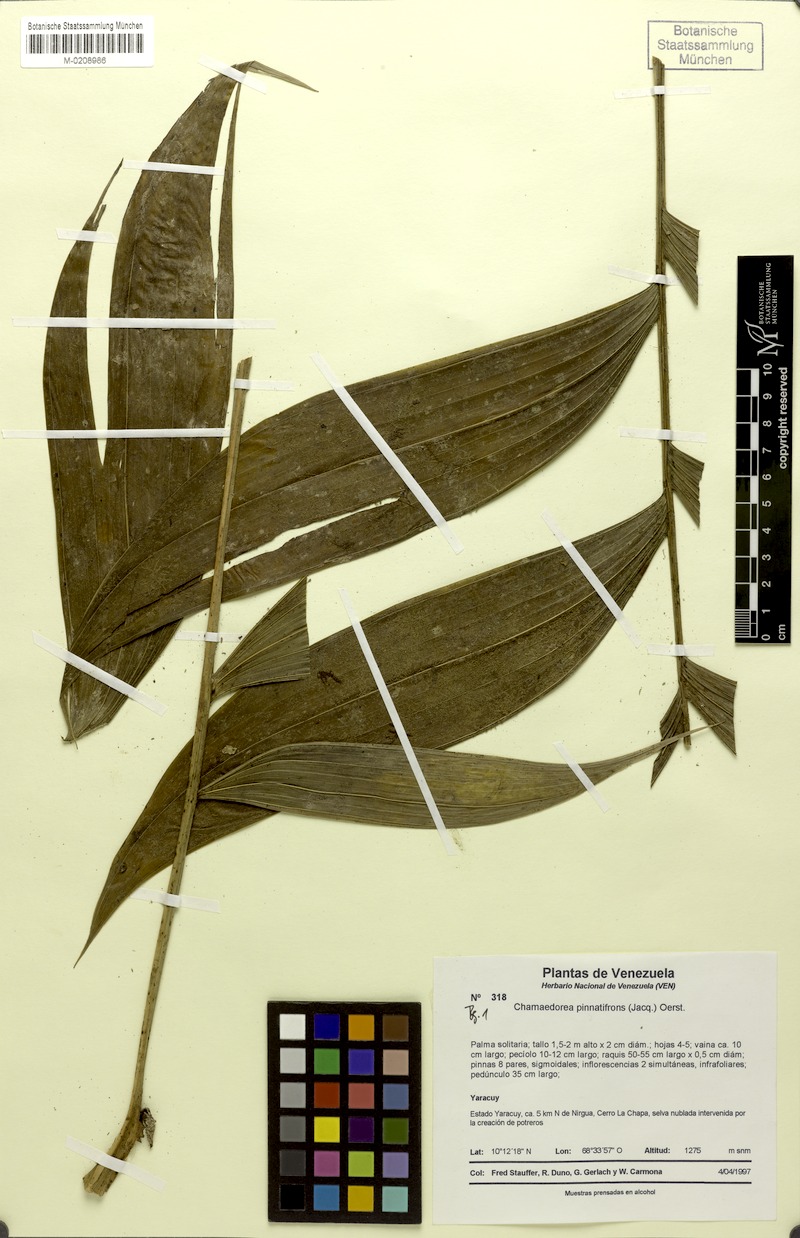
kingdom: Plantae
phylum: Tracheophyta
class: Liliopsida
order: Arecales
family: Arecaceae
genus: Chamaedorea
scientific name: Chamaedorea pinnatifrons
